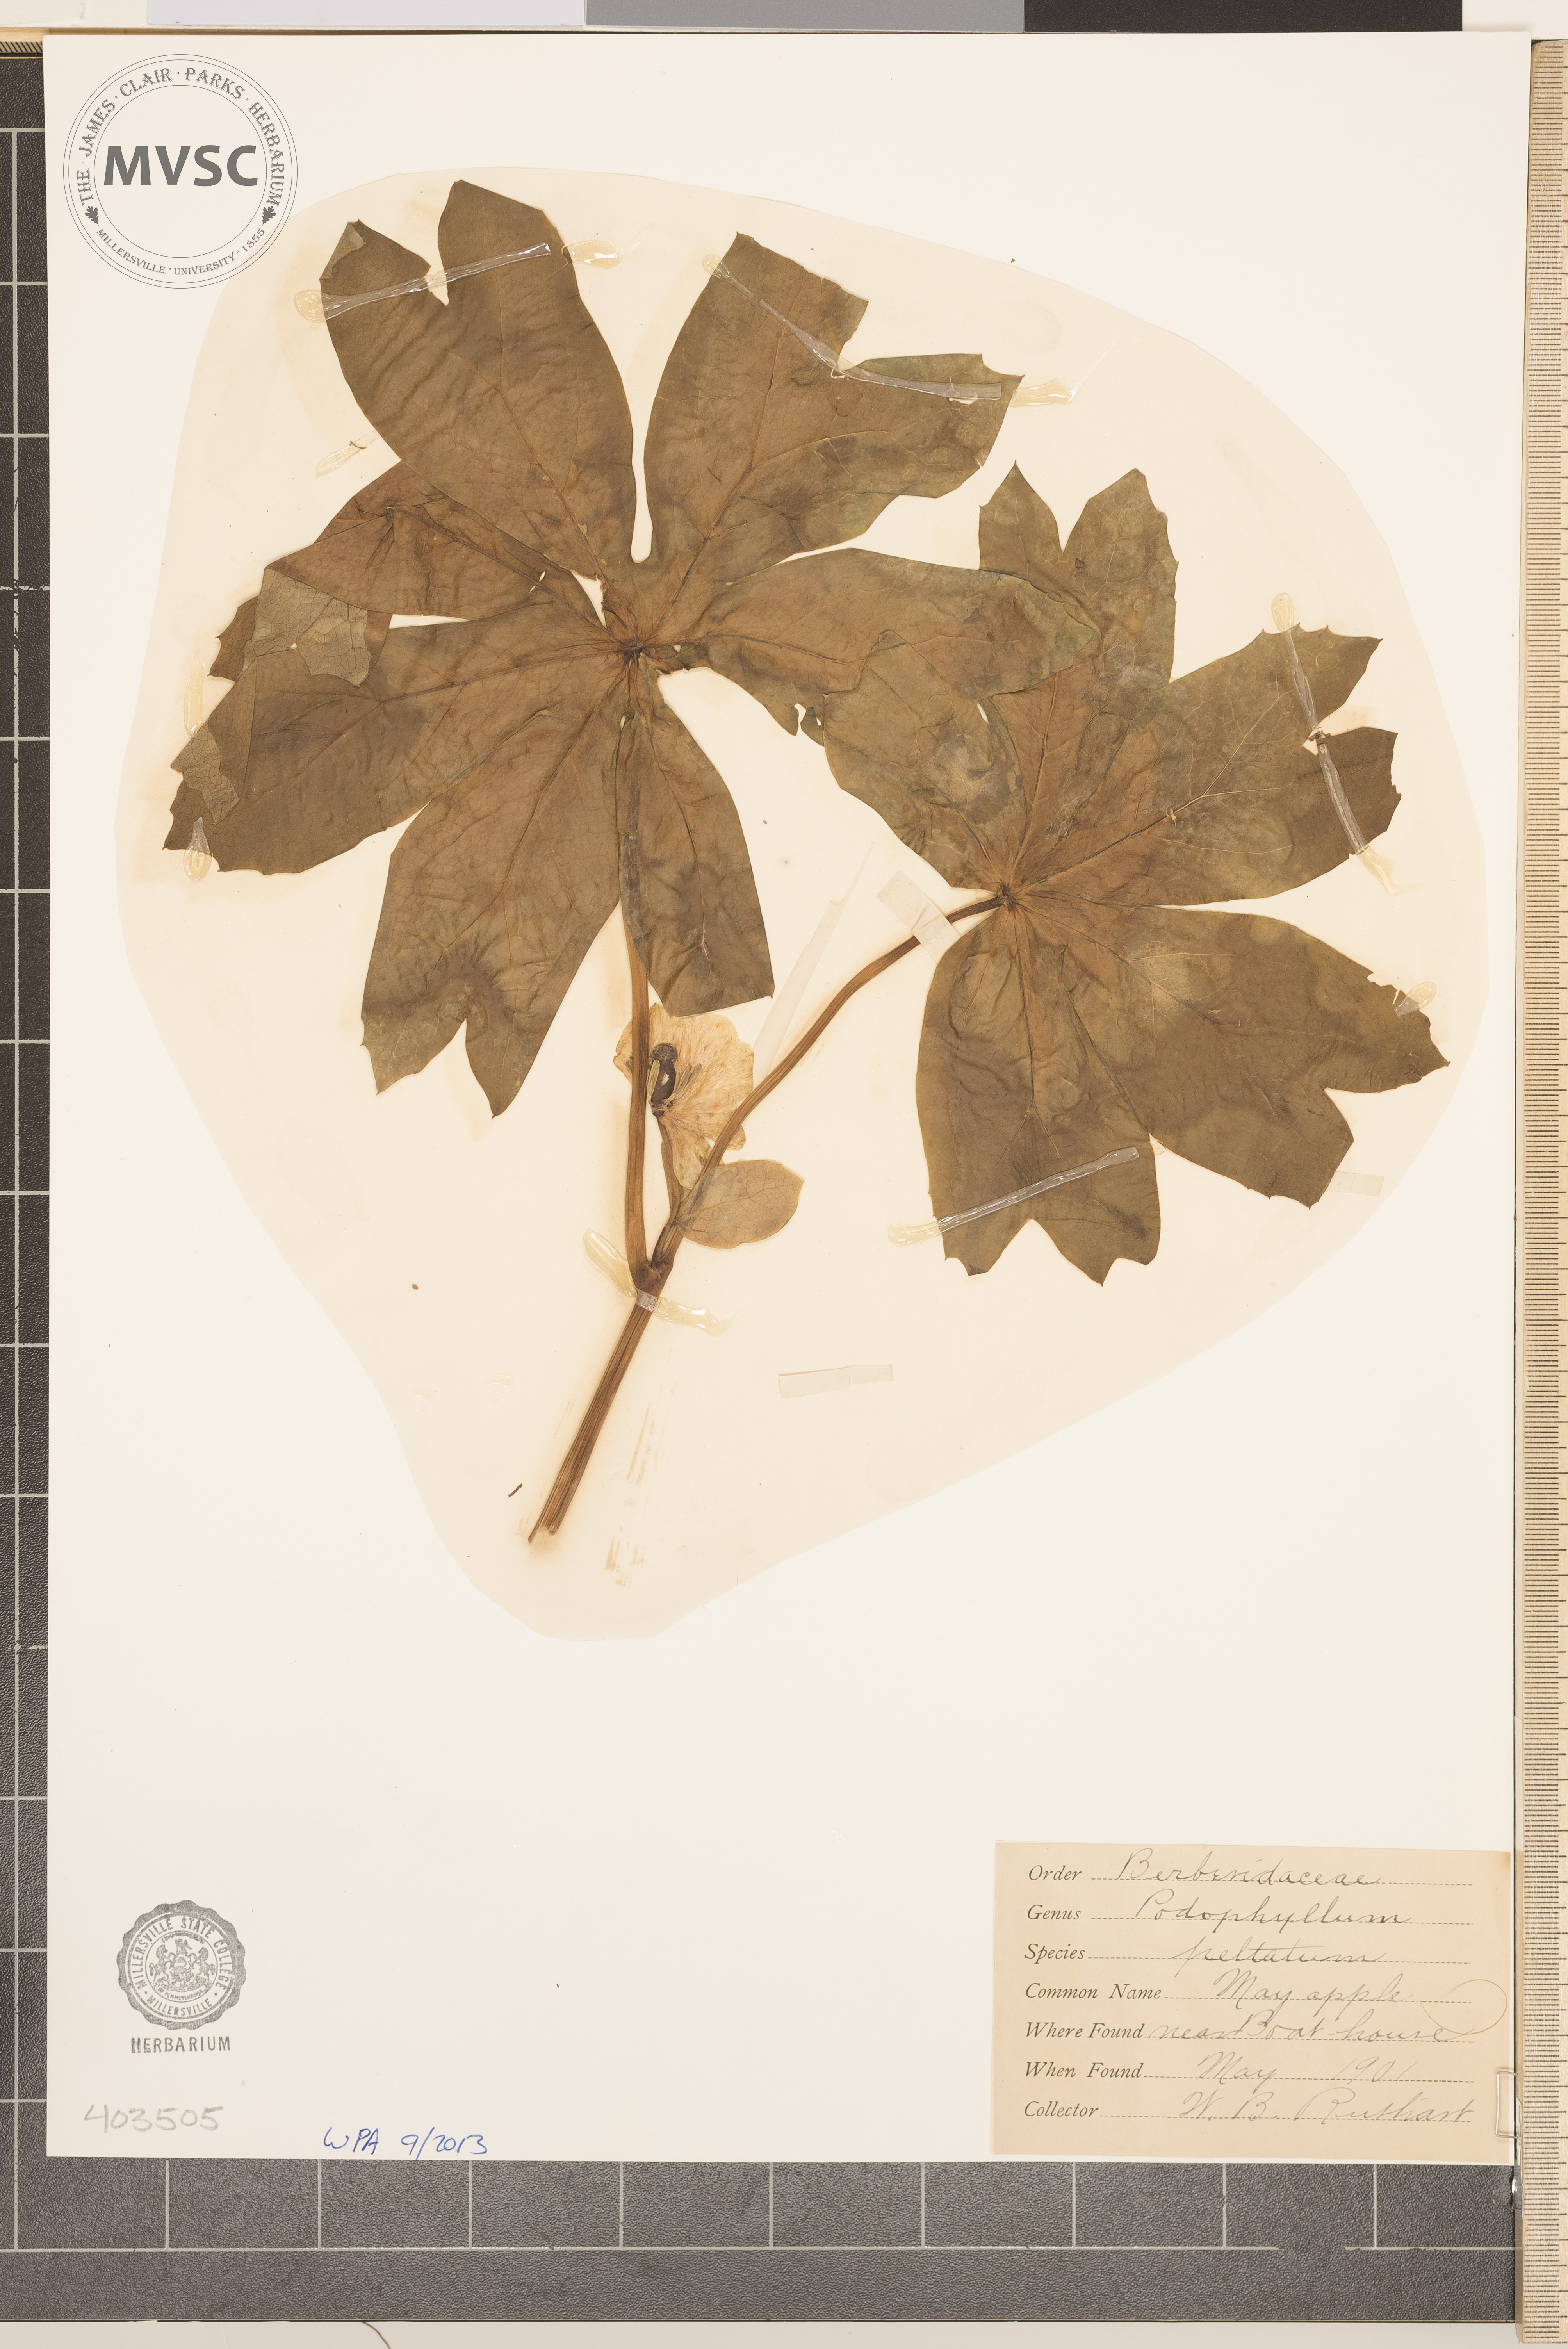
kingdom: Plantae
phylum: Tracheophyta
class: Magnoliopsida
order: Ranunculales
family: Berberidaceae
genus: Podophyllum
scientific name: Podophyllum peltatum
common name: May-Apple
